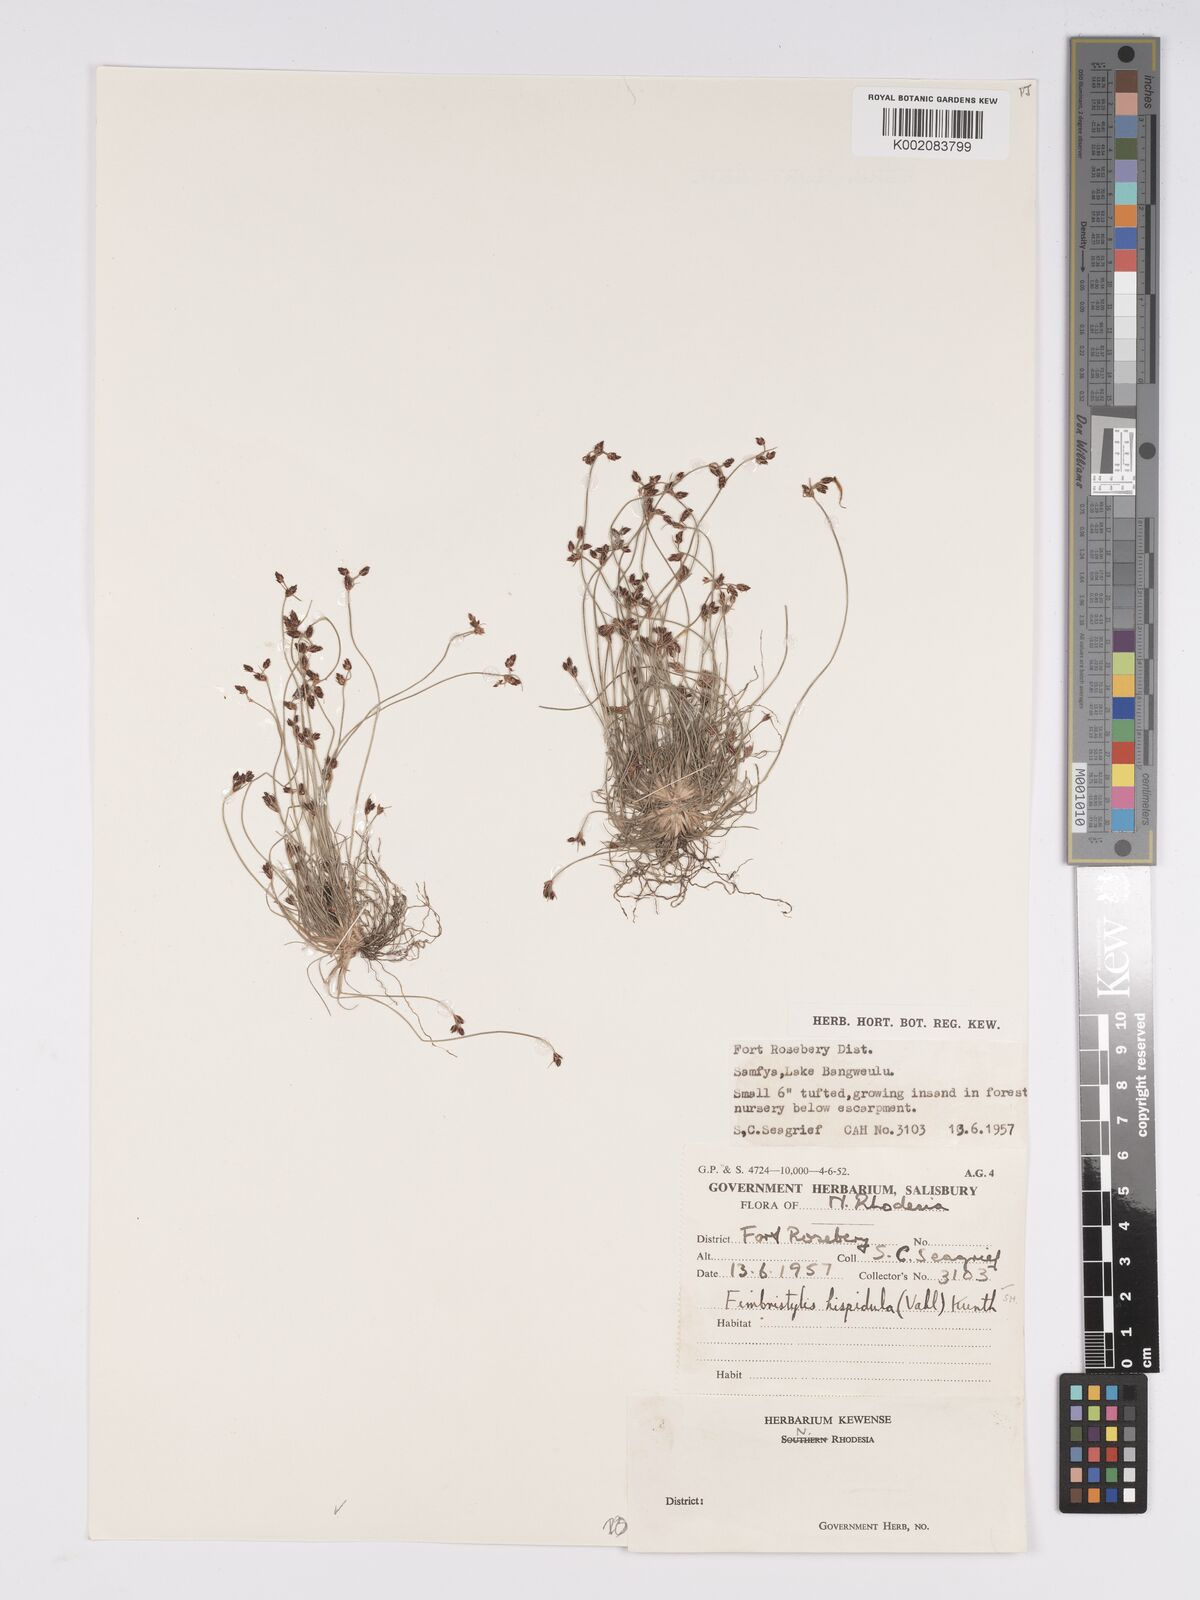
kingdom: Plantae
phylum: Tracheophyta
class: Liliopsida
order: Poales
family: Cyperaceae
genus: Bulbostylis
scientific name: Bulbostylis hispidula
